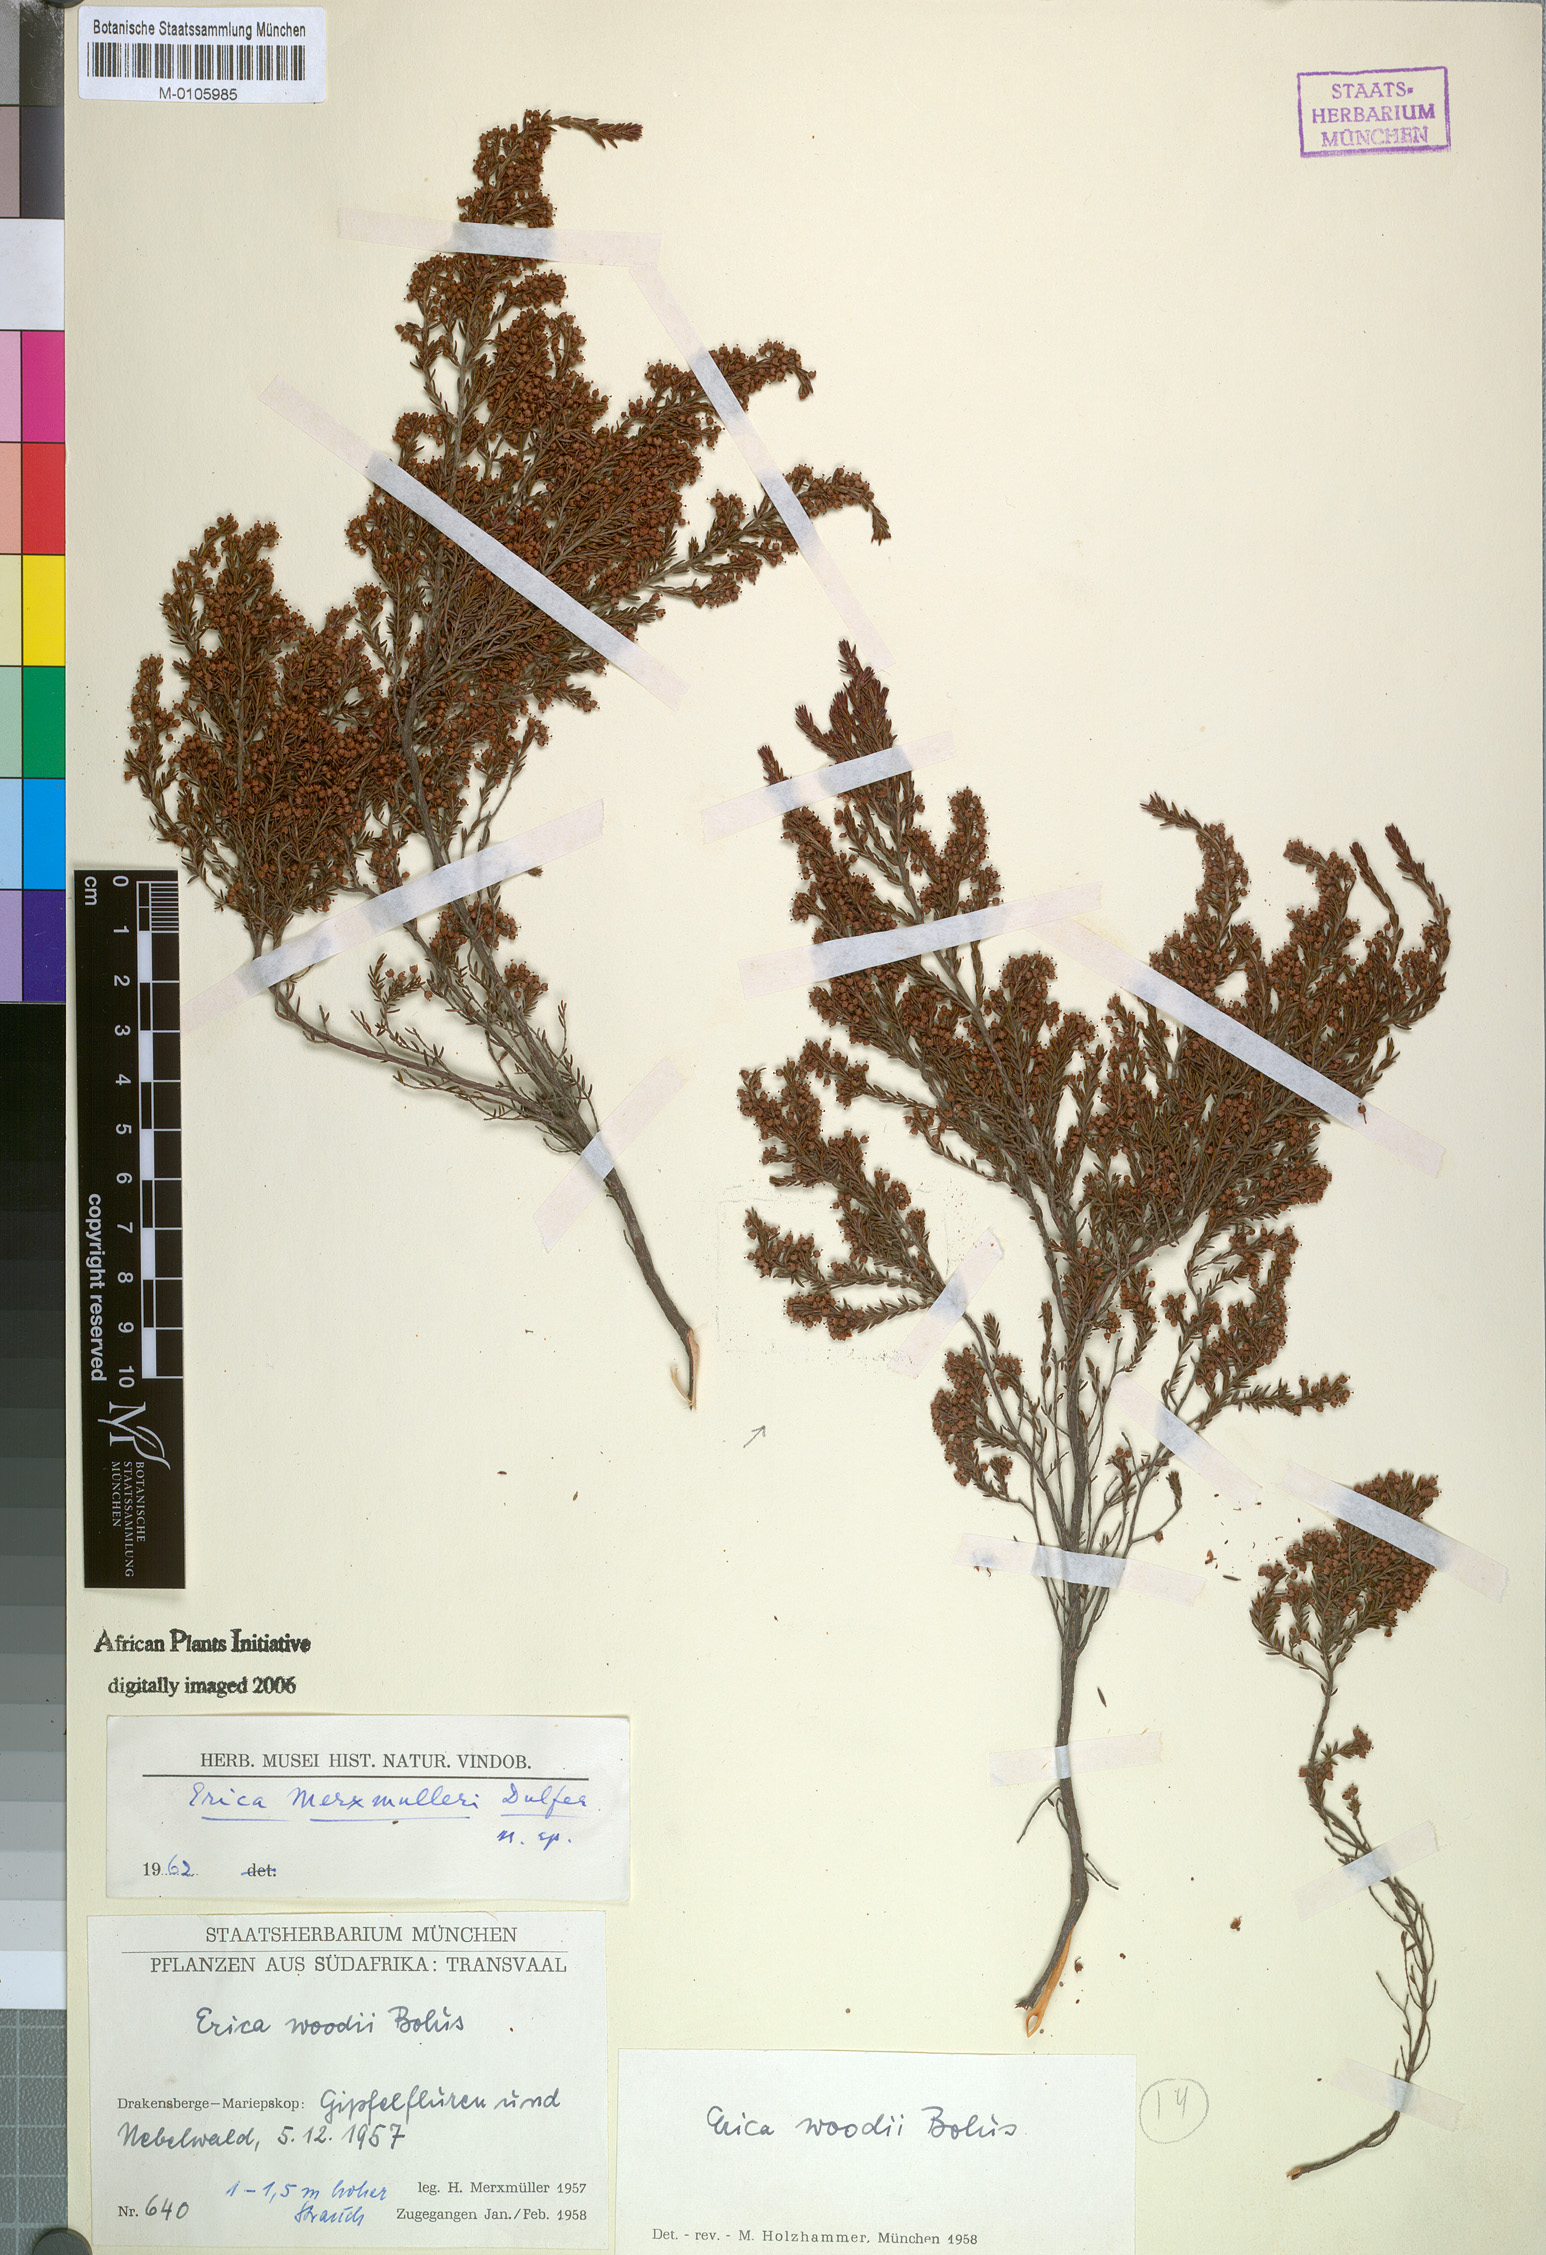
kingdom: Plantae
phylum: Tracheophyta
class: Magnoliopsida
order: Ericales
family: Ericaceae
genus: Erica
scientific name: Erica natalitia
